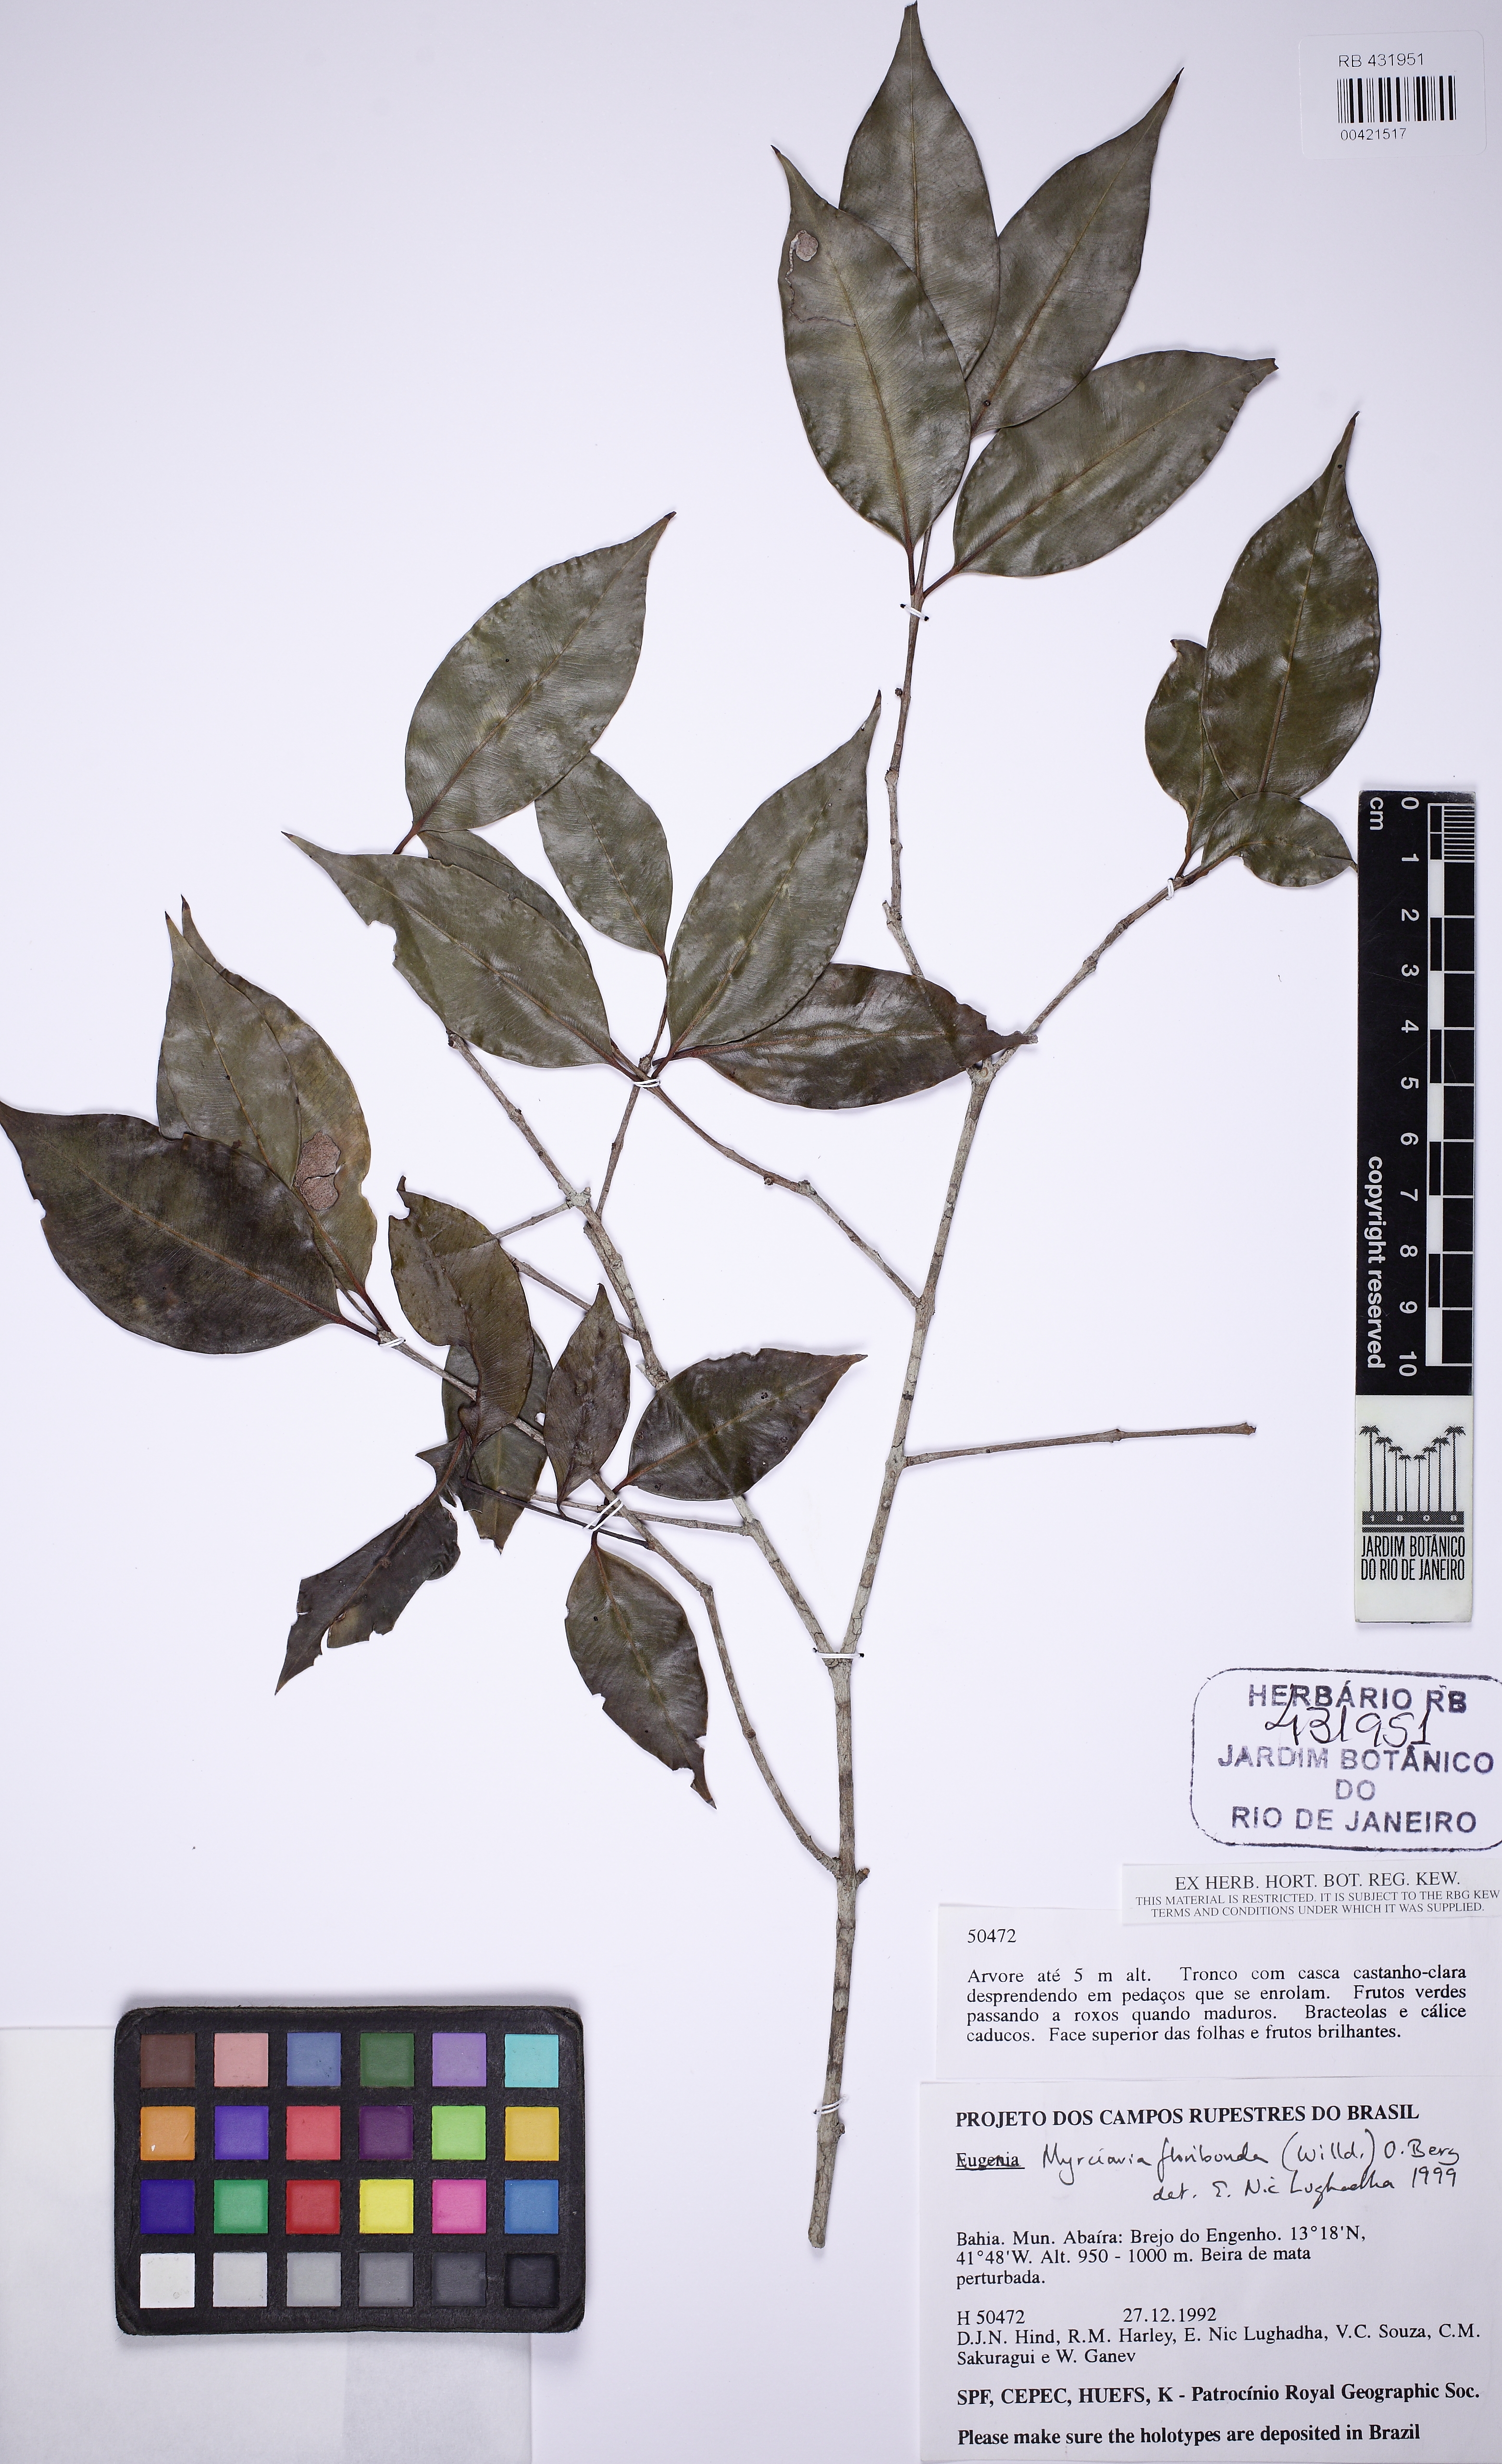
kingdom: Plantae
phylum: Tracheophyta
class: Magnoliopsida
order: Myrtales
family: Myrtaceae
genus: Myrciaria
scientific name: Myrciaria floribunda
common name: Guavaberry
